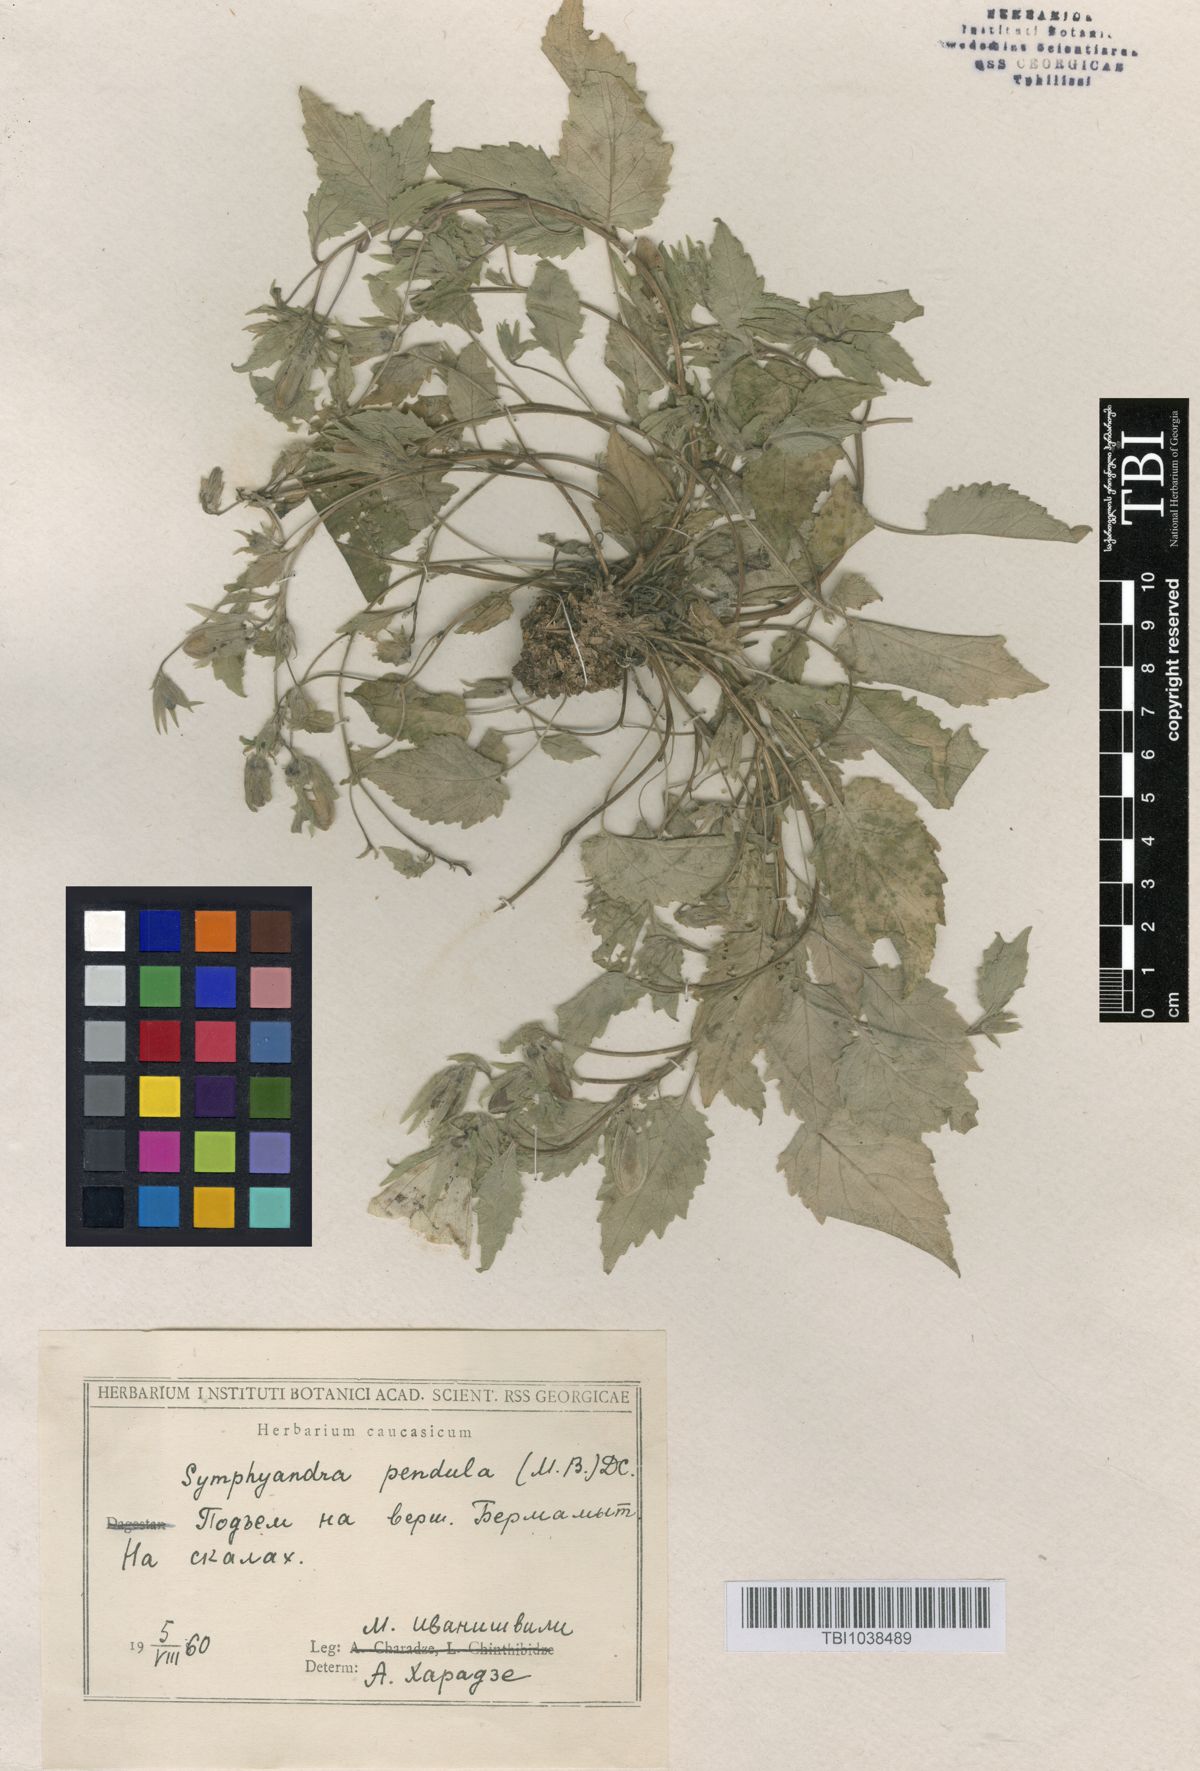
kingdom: Plantae
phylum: Tracheophyta
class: Magnoliopsida
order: Asterales
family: Campanulaceae
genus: Campanula
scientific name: Campanula pendula
